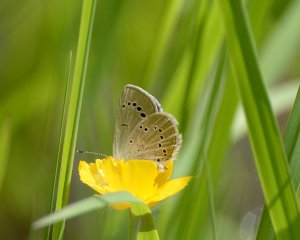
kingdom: Animalia
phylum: Arthropoda
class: Insecta
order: Lepidoptera
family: Lycaenidae
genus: Glaucopsyche
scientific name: Glaucopsyche lygdamus
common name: Silvery Blue
